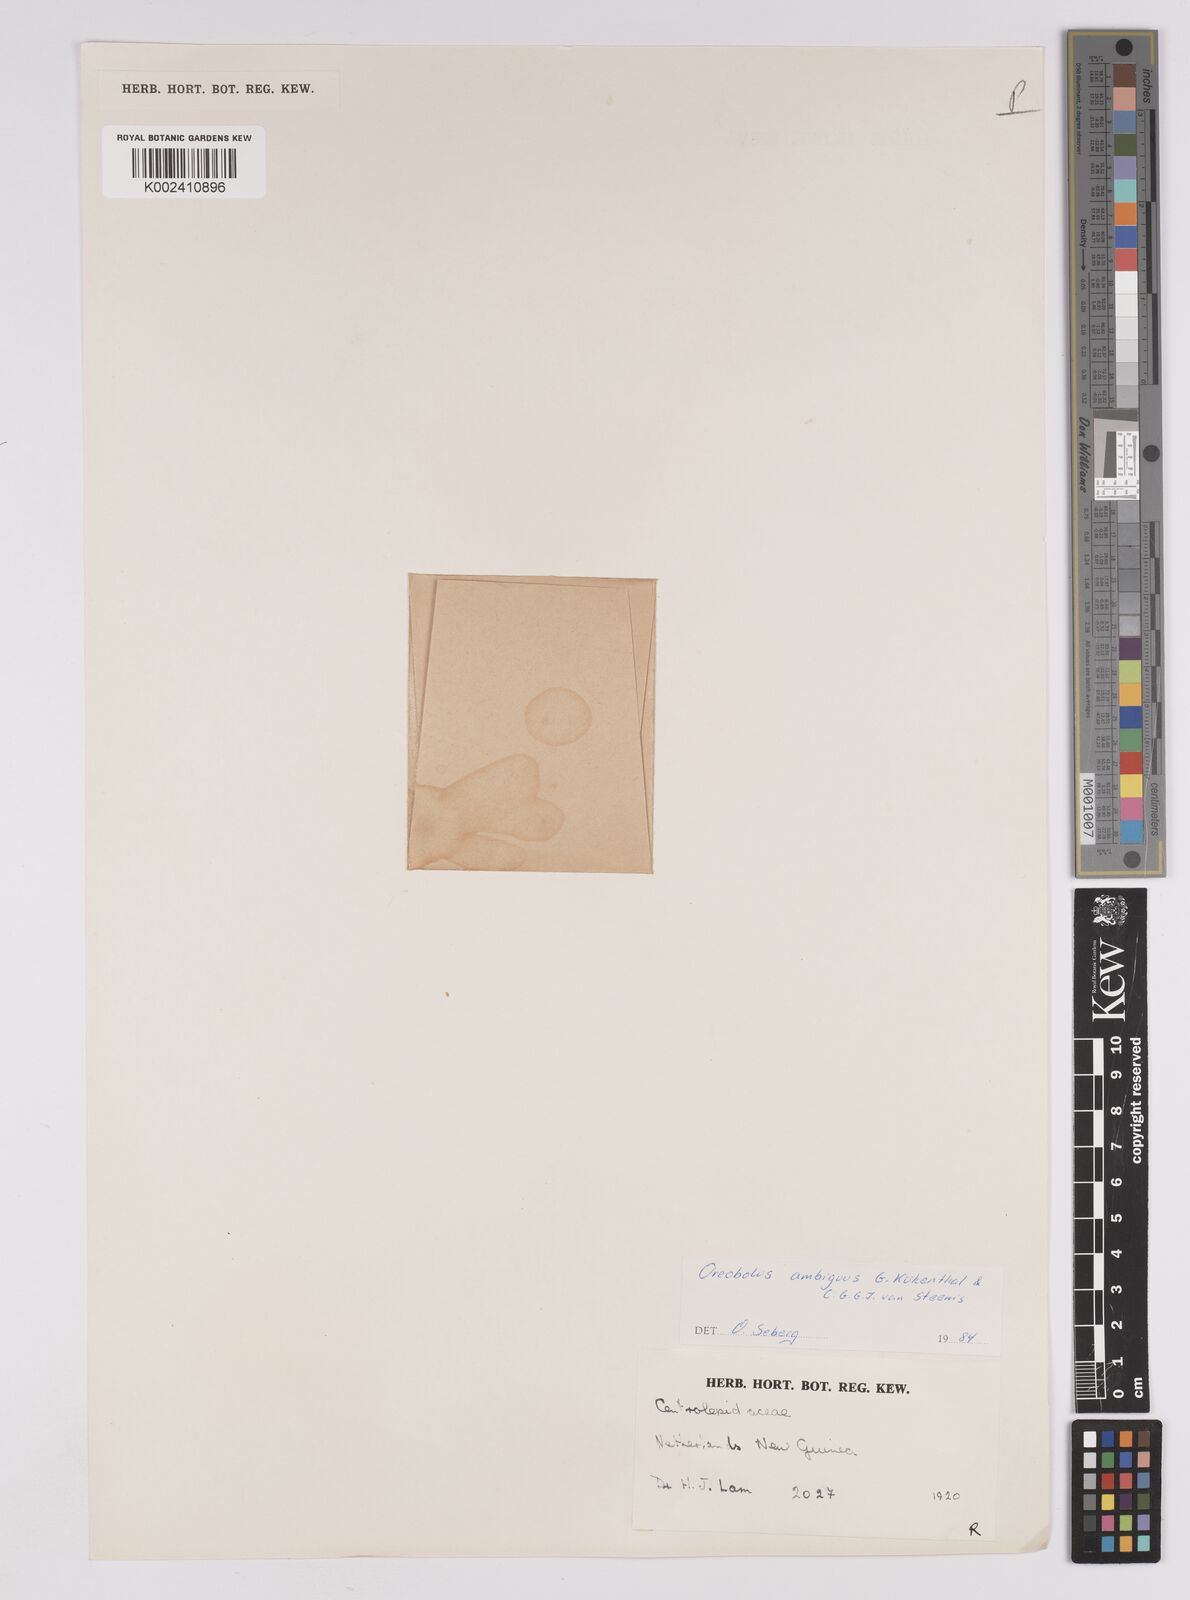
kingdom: Plantae
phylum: Tracheophyta
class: Liliopsida
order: Poales
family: Cyperaceae
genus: Oreobolus
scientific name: Oreobolus ambiguus
